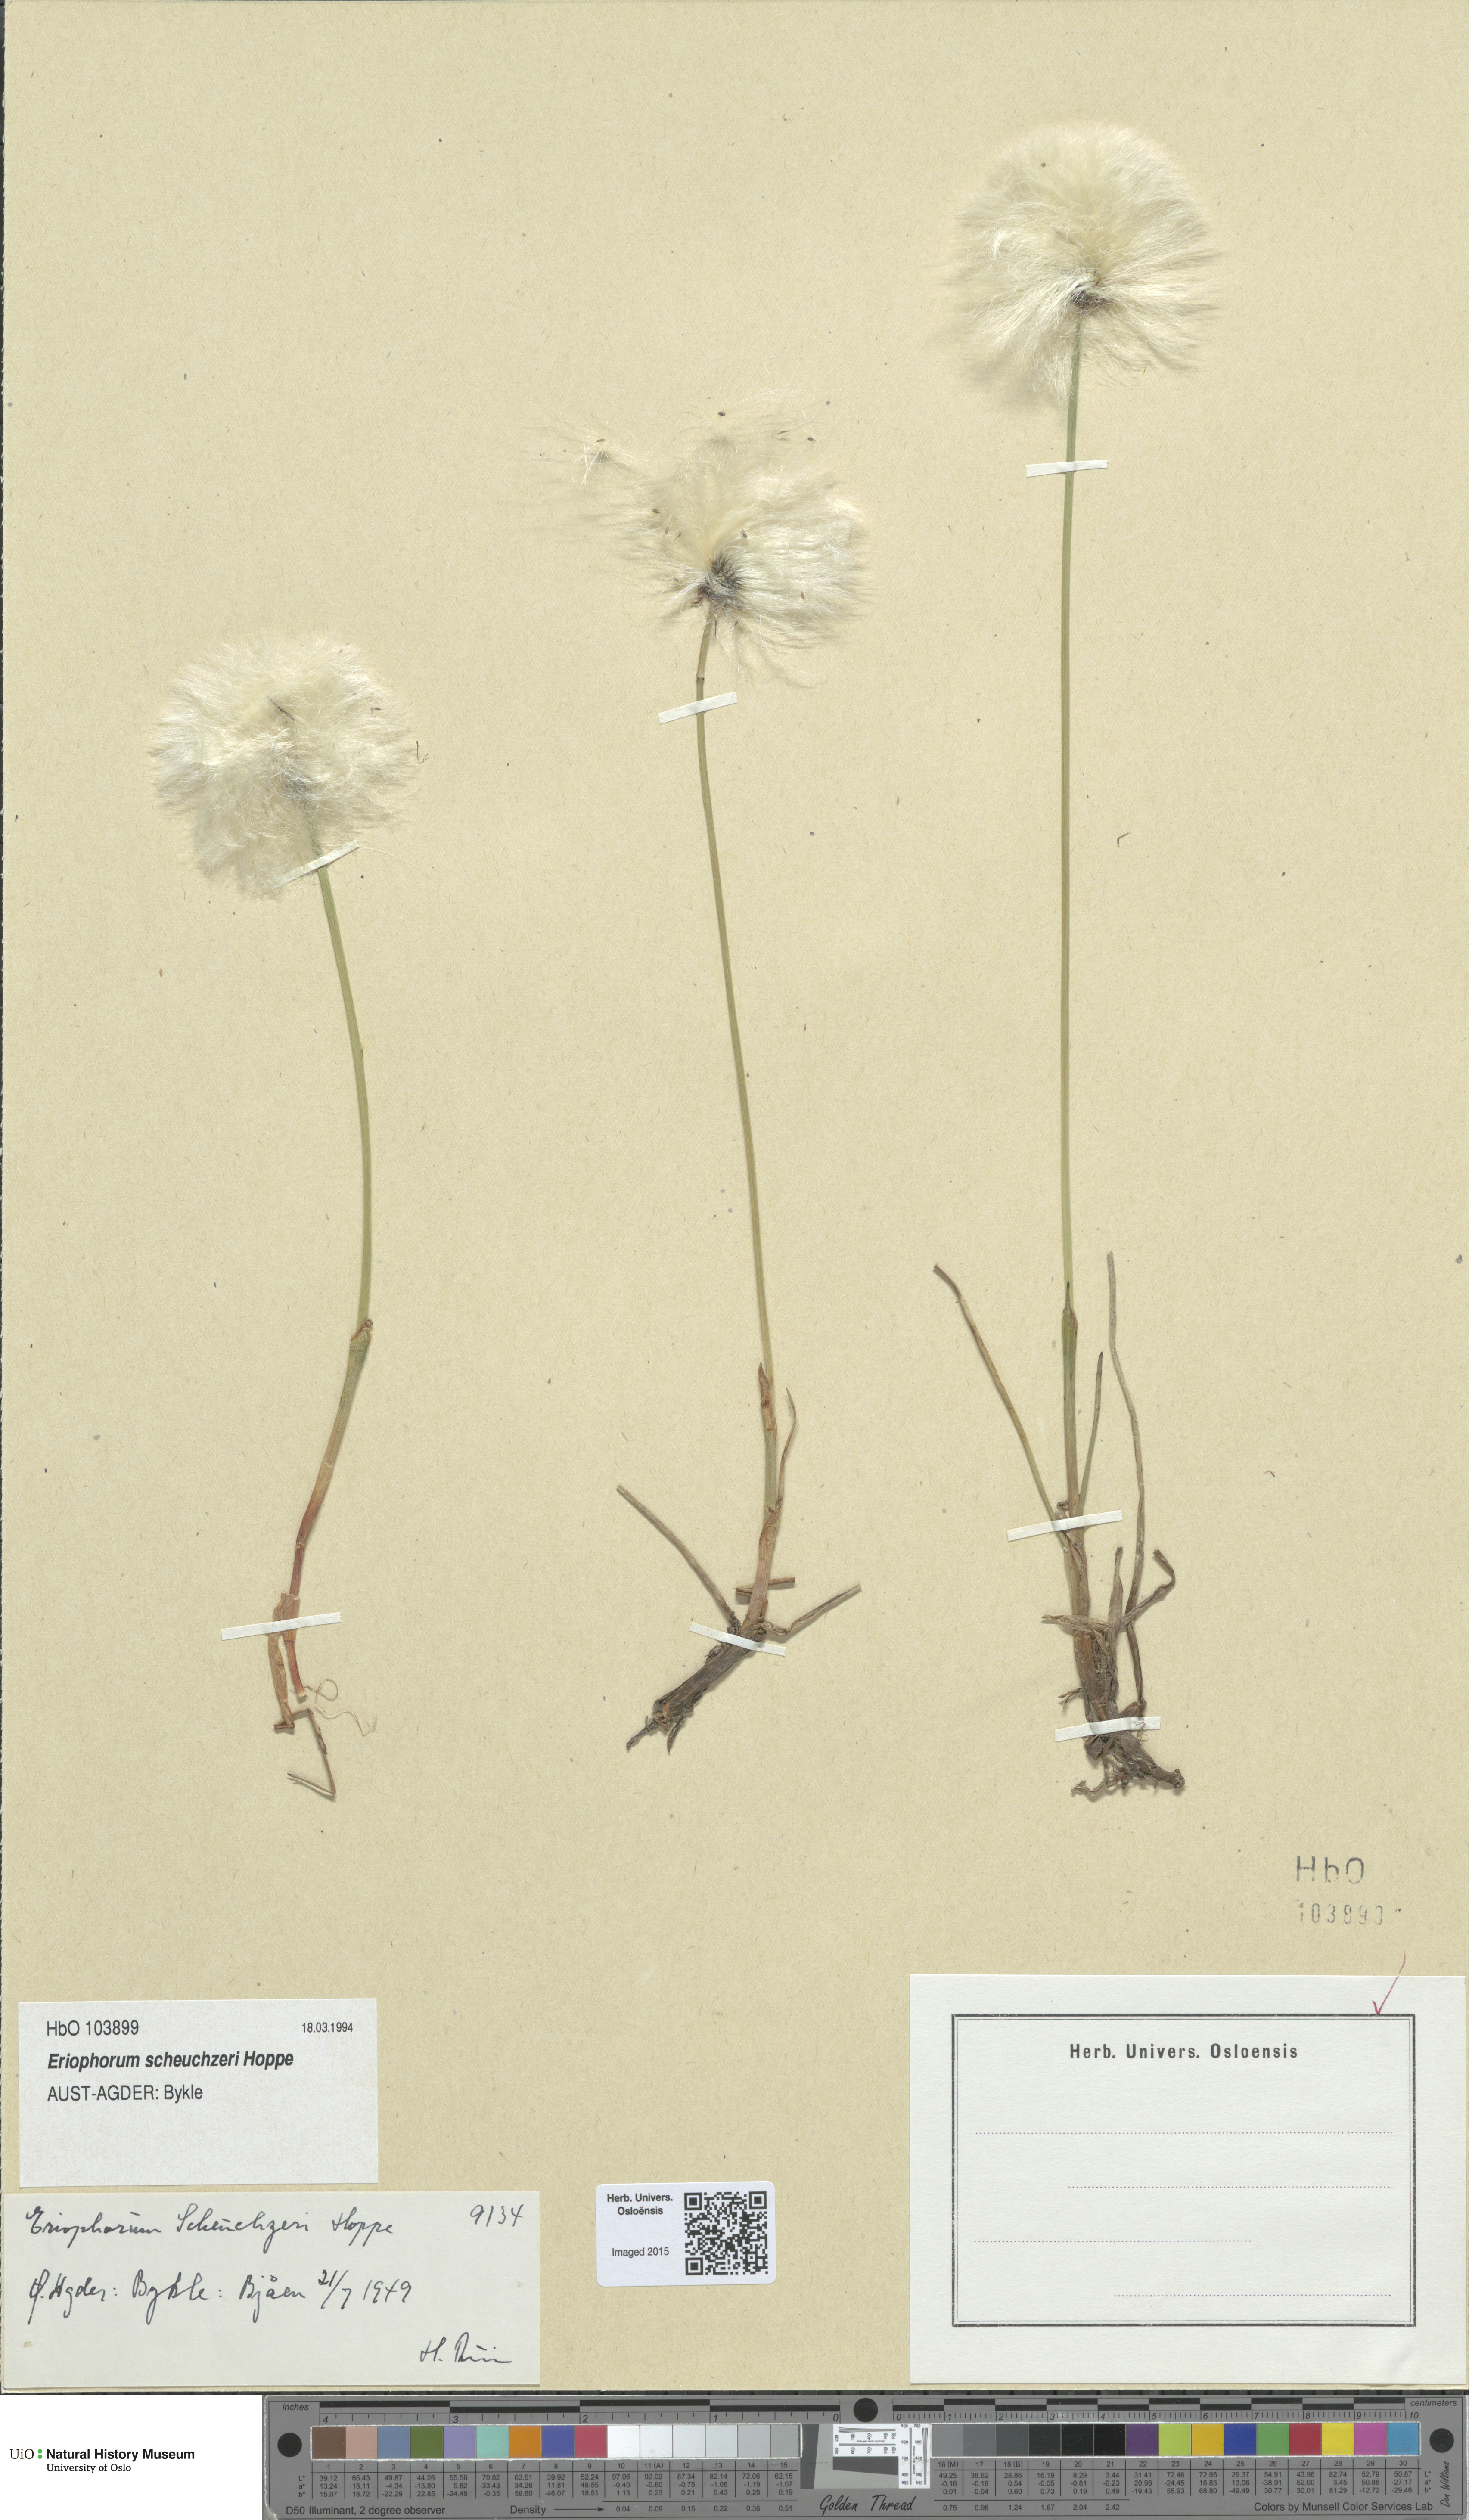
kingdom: Plantae
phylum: Tracheophyta
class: Liliopsida
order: Poales
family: Cyperaceae
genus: Eriophorum
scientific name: Eriophorum scheuchzeri
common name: Scheuchzer's cottongrass
